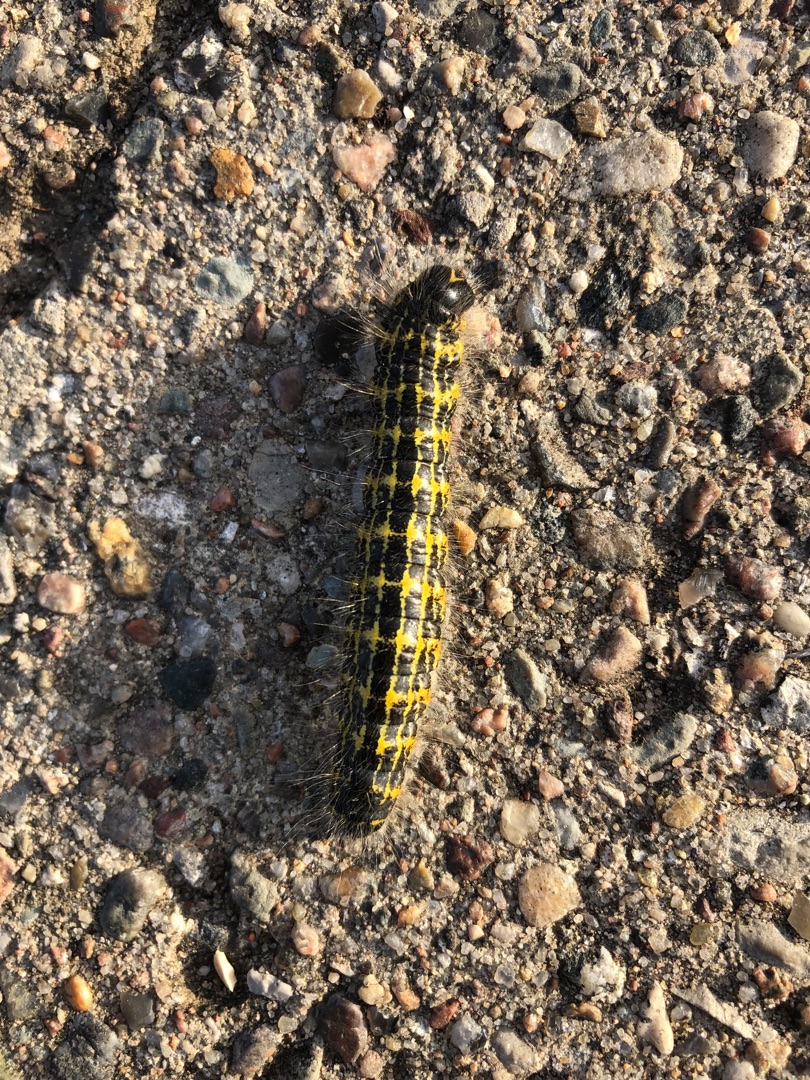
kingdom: Animalia
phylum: Arthropoda
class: Insecta
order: Lepidoptera
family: Notodontidae
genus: Phalera
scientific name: Phalera bucephala
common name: Måneplet
